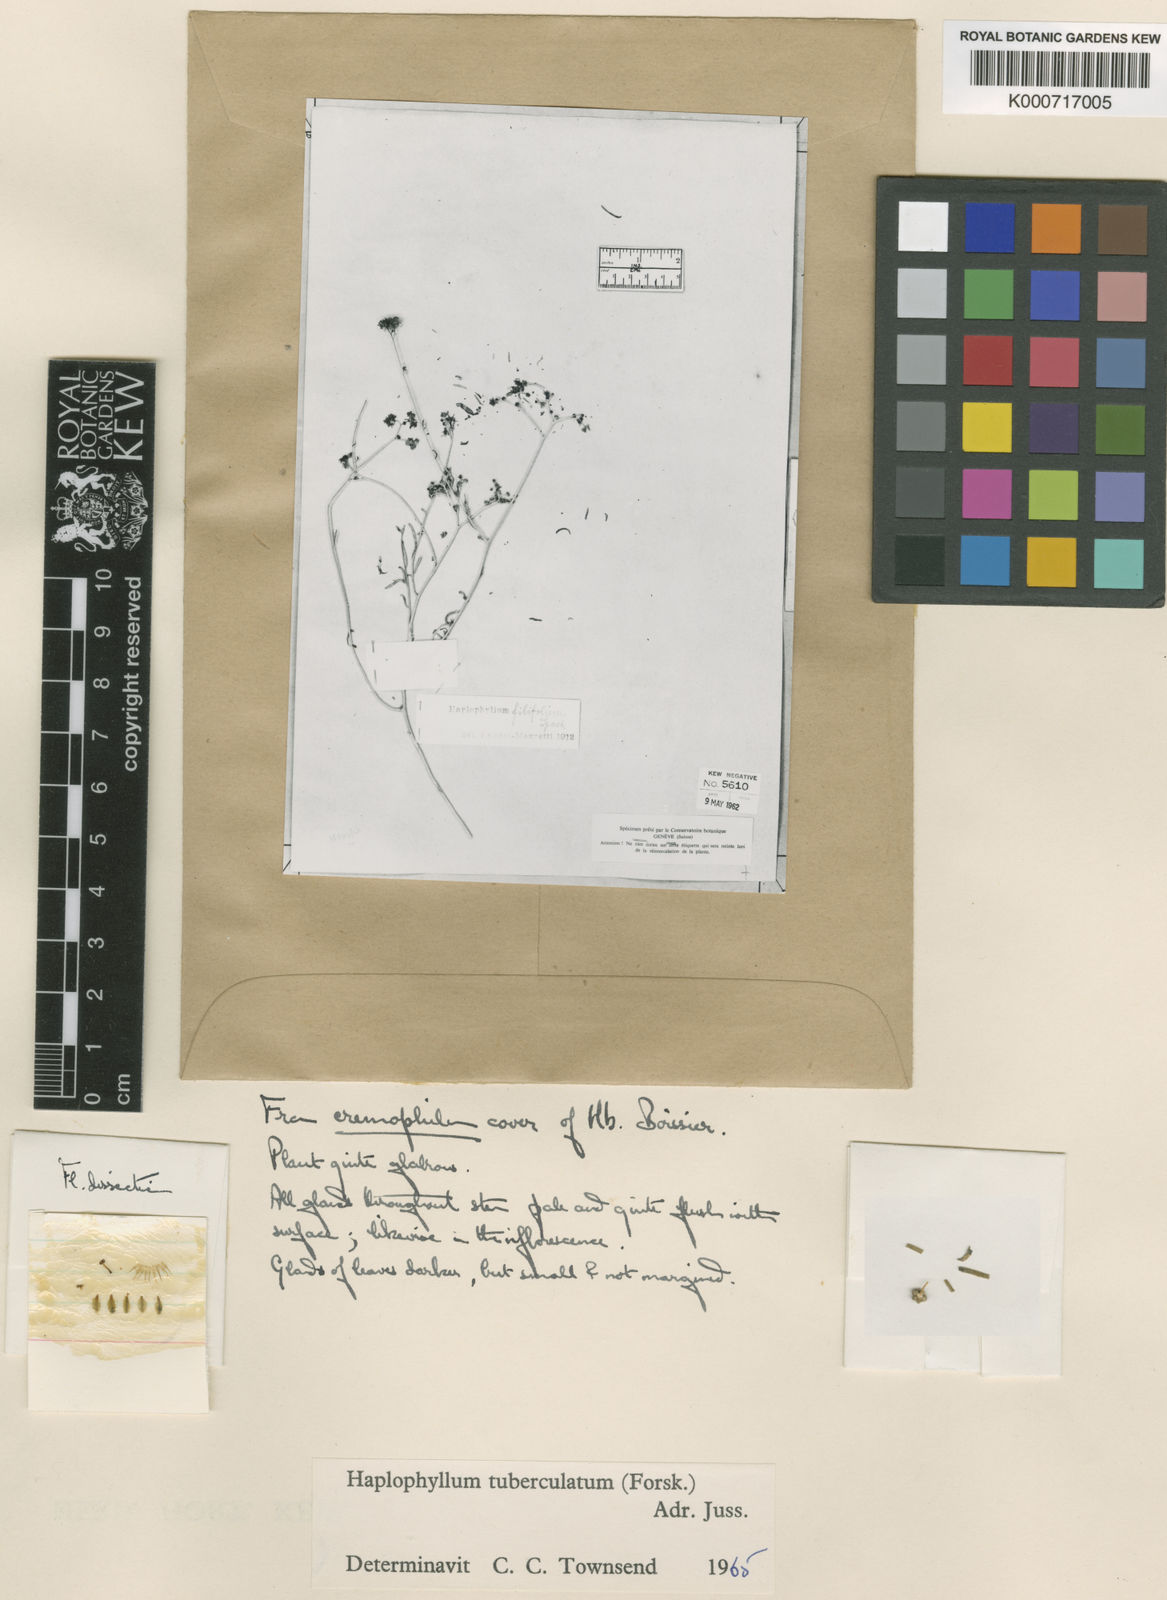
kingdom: Plantae
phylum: Tracheophyta
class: Magnoliopsida
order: Sapindales
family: Rutaceae
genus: Haplophyllum
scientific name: Haplophyllum tuberculatum
